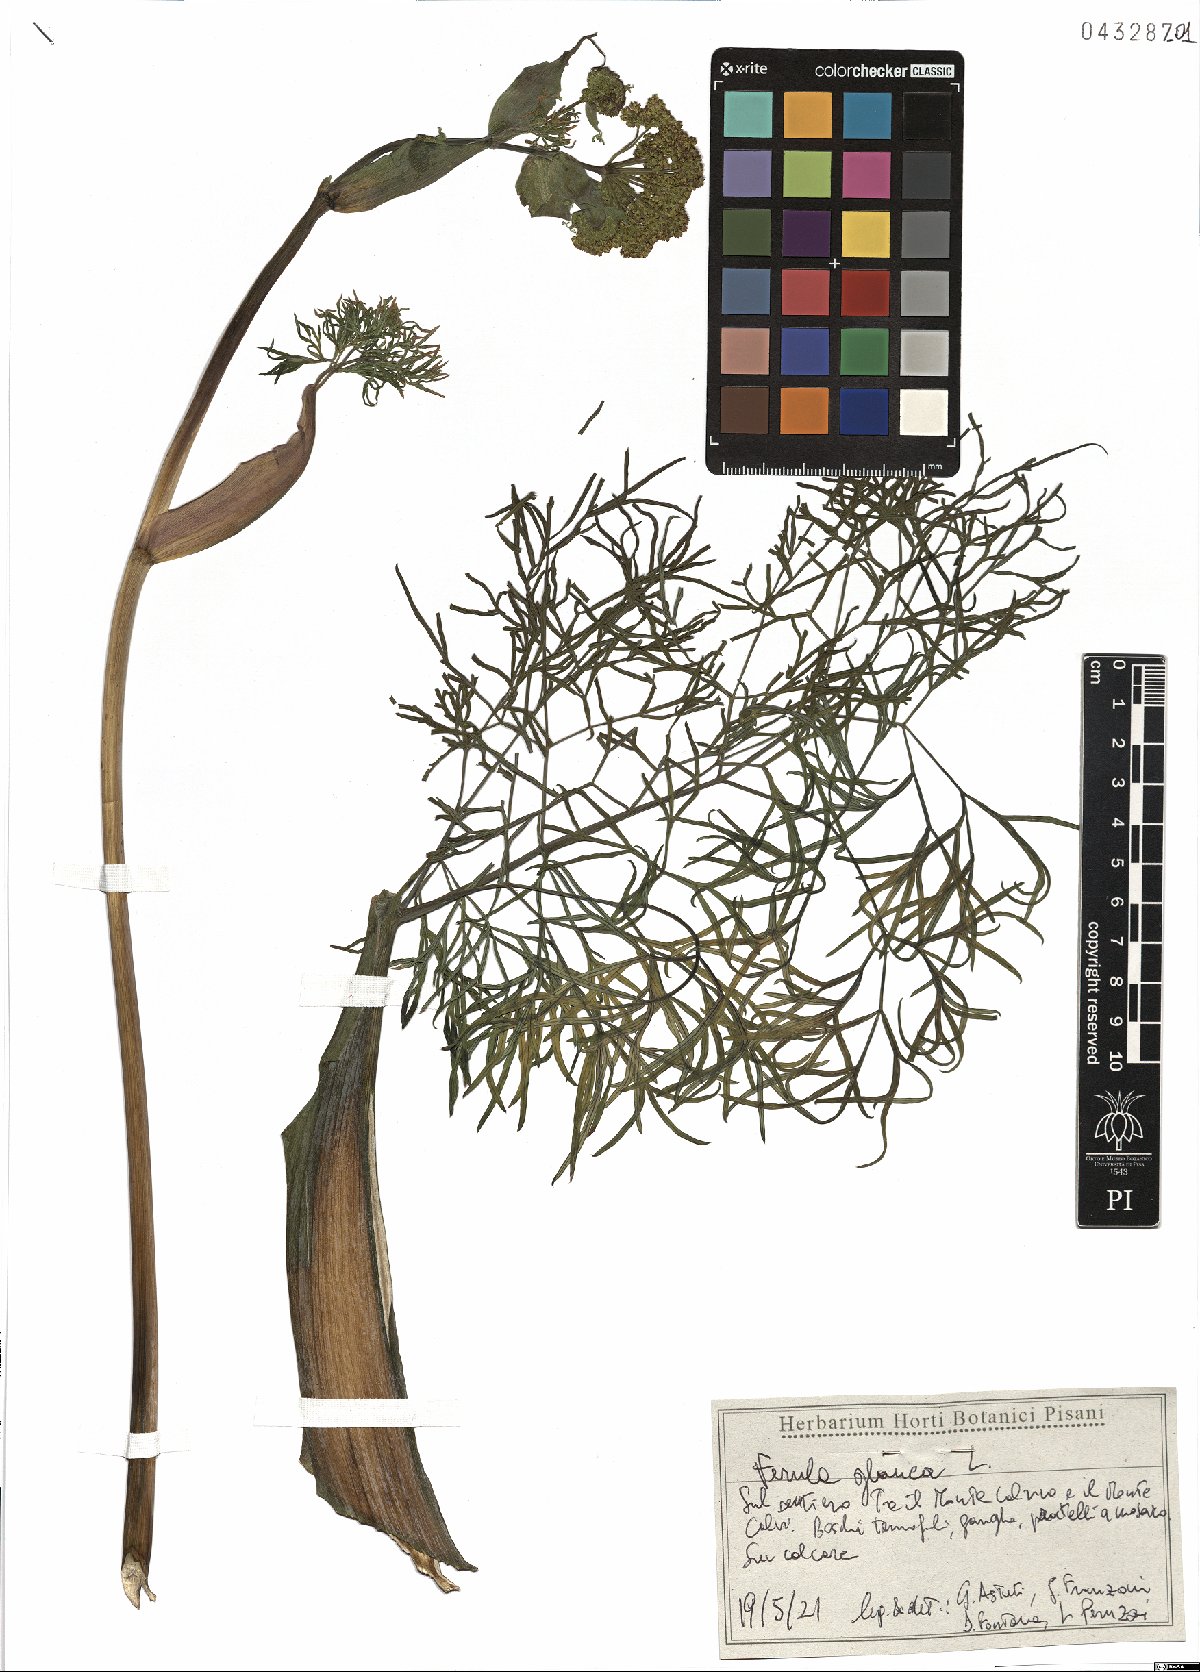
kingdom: Plantae
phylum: Tracheophyta
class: Magnoliopsida
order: Apiales
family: Apiaceae
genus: Ferula
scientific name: Ferula glauca
